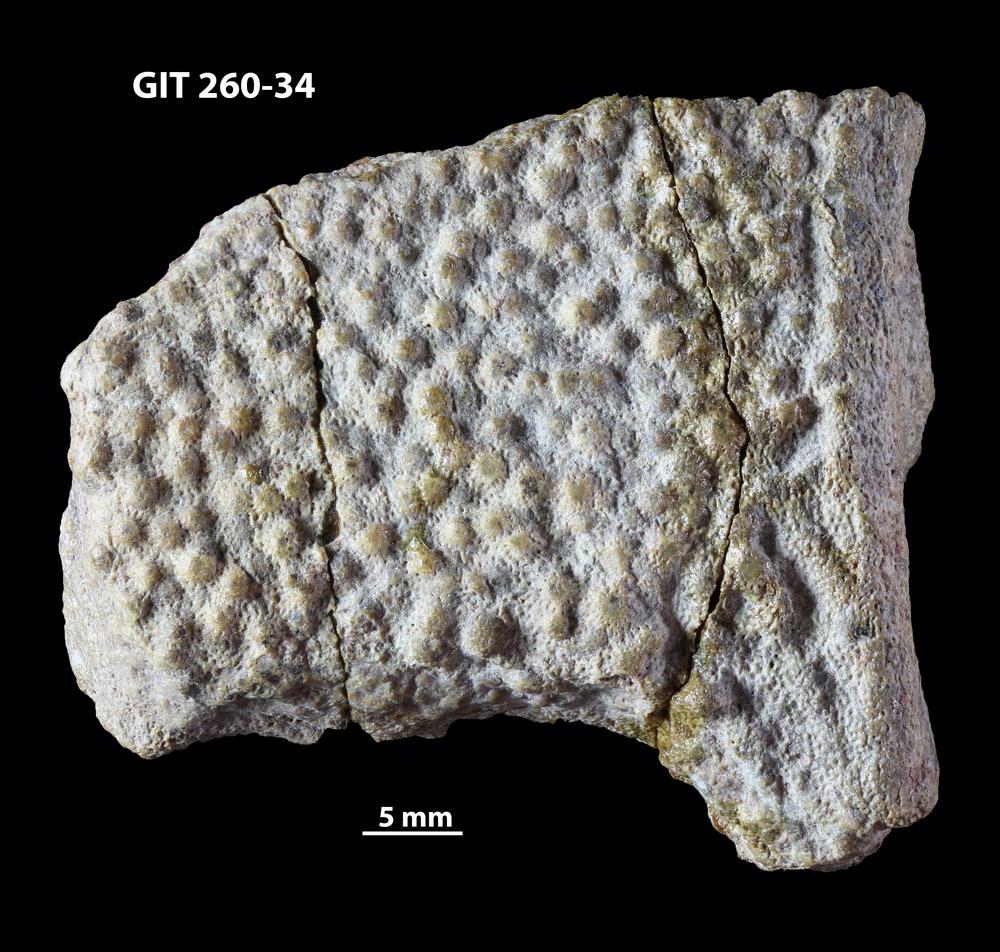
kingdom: Animalia
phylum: Chordata
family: Homostiidae
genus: Homostius
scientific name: Homostius
